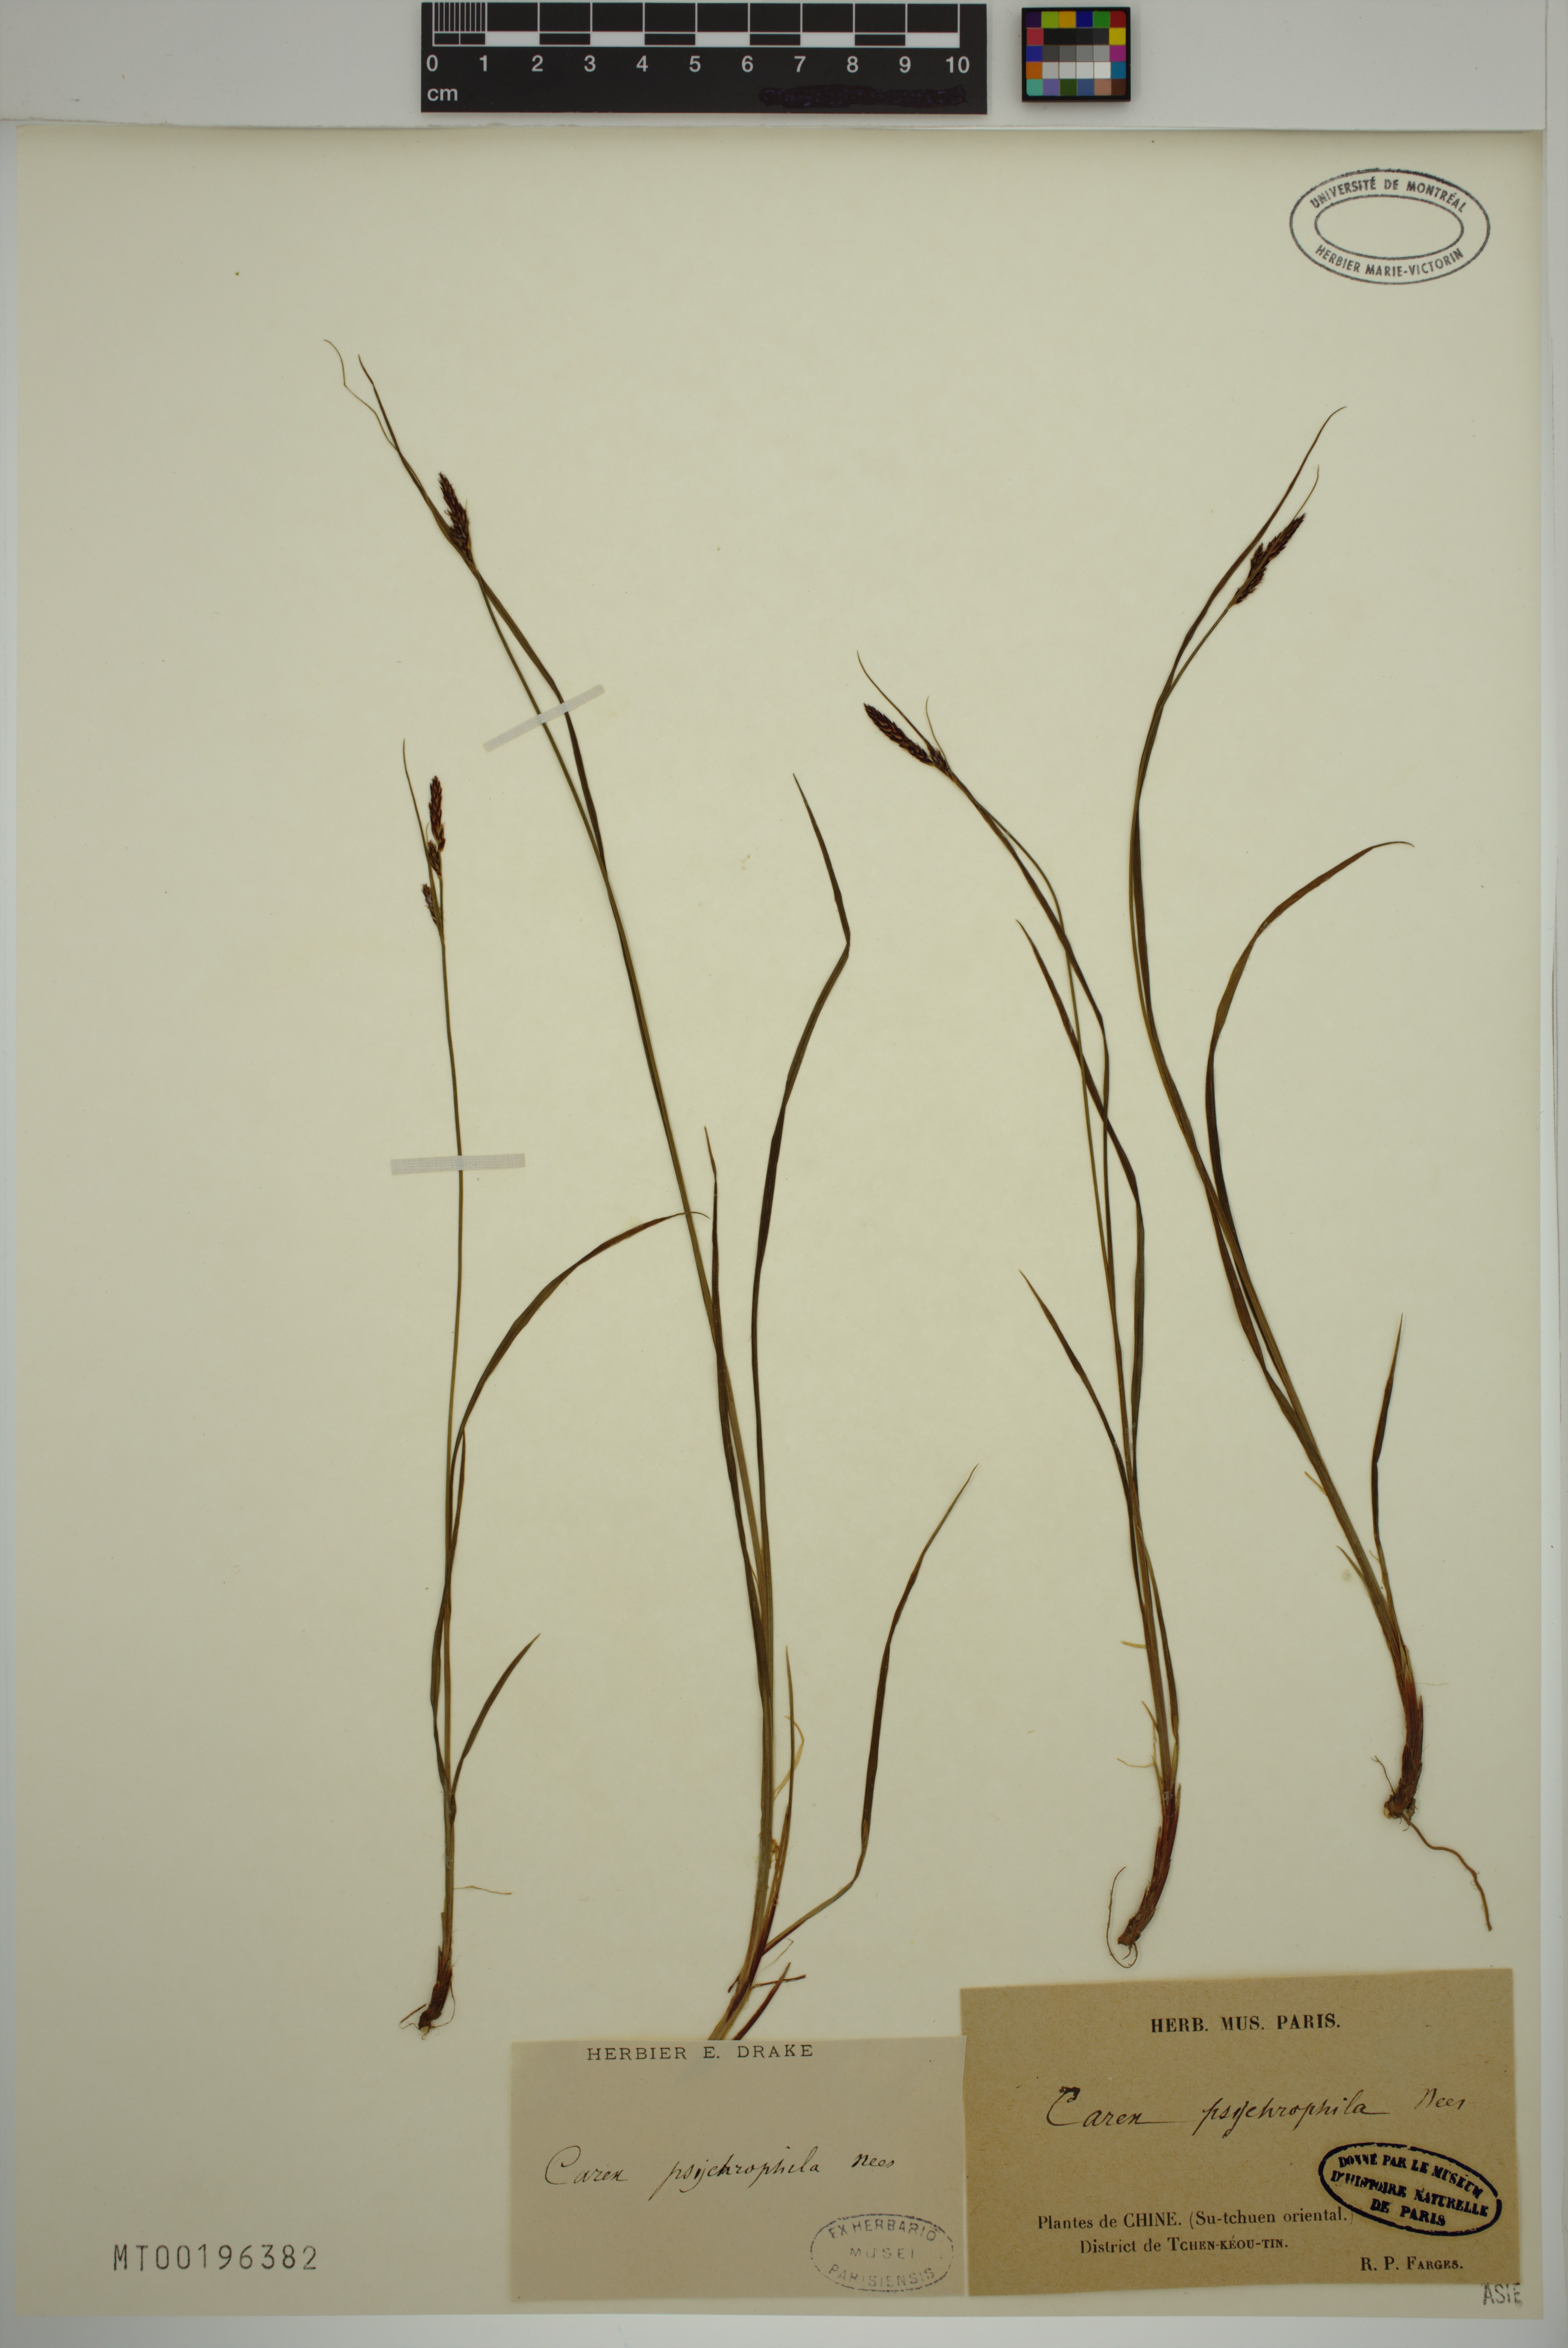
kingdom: Plantae
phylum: Tracheophyta
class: Liliopsida
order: Poales
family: Cyperaceae
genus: Carex
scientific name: Carex psychrophila
